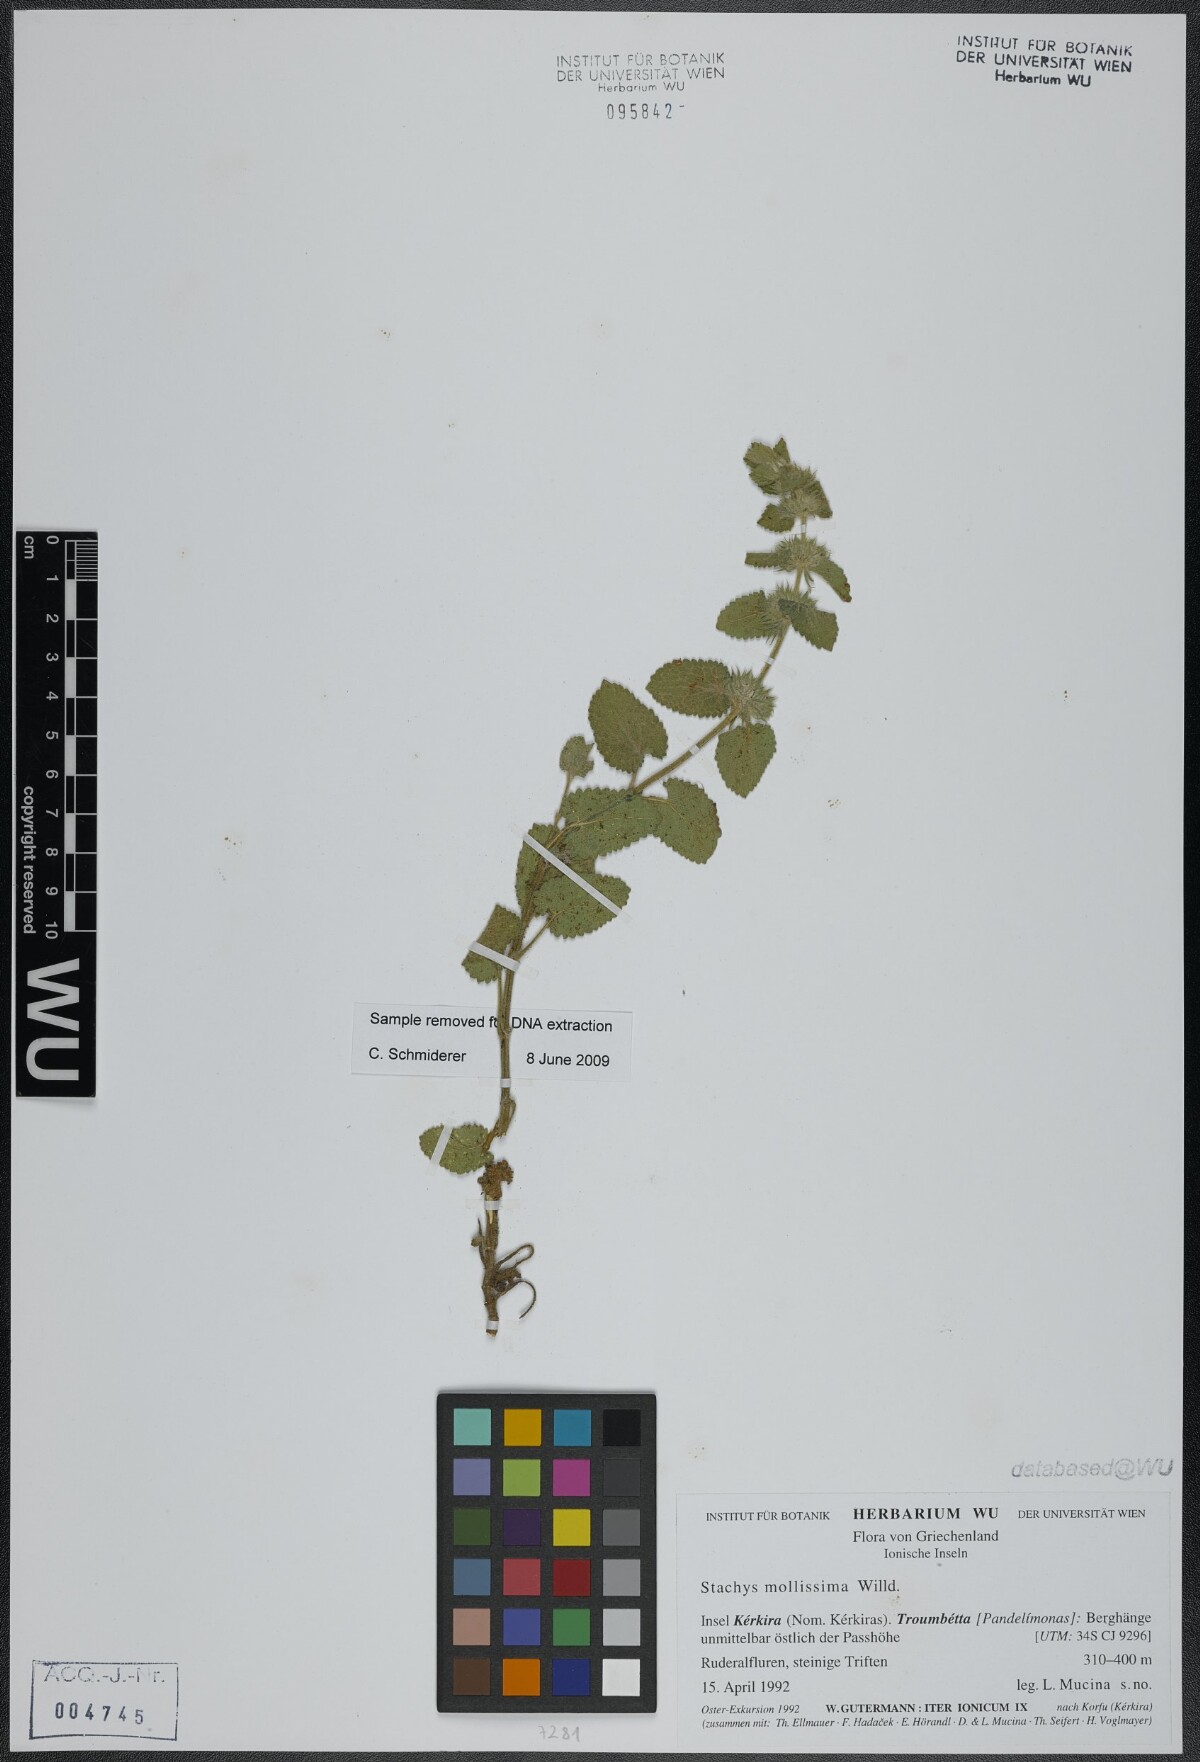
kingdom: Plantae
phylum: Tracheophyta
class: Magnoliopsida
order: Lamiales
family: Lamiaceae
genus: Stachys
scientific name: Stachys mollissima
